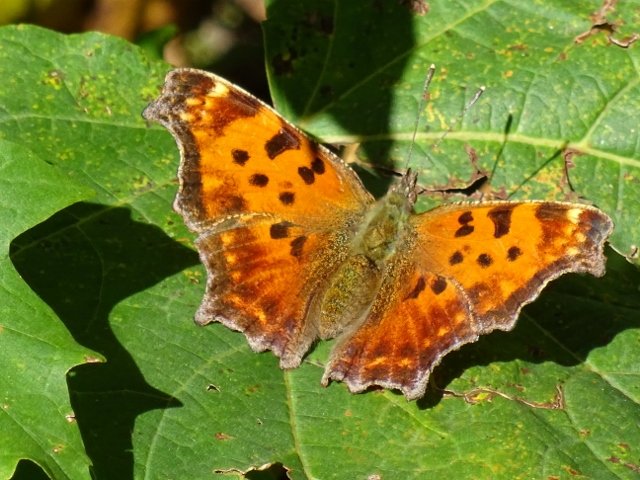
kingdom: Animalia
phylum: Arthropoda
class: Insecta
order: Lepidoptera
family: Nymphalidae
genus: Polygonia
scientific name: Polygonia comma
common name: Eastern Comma
